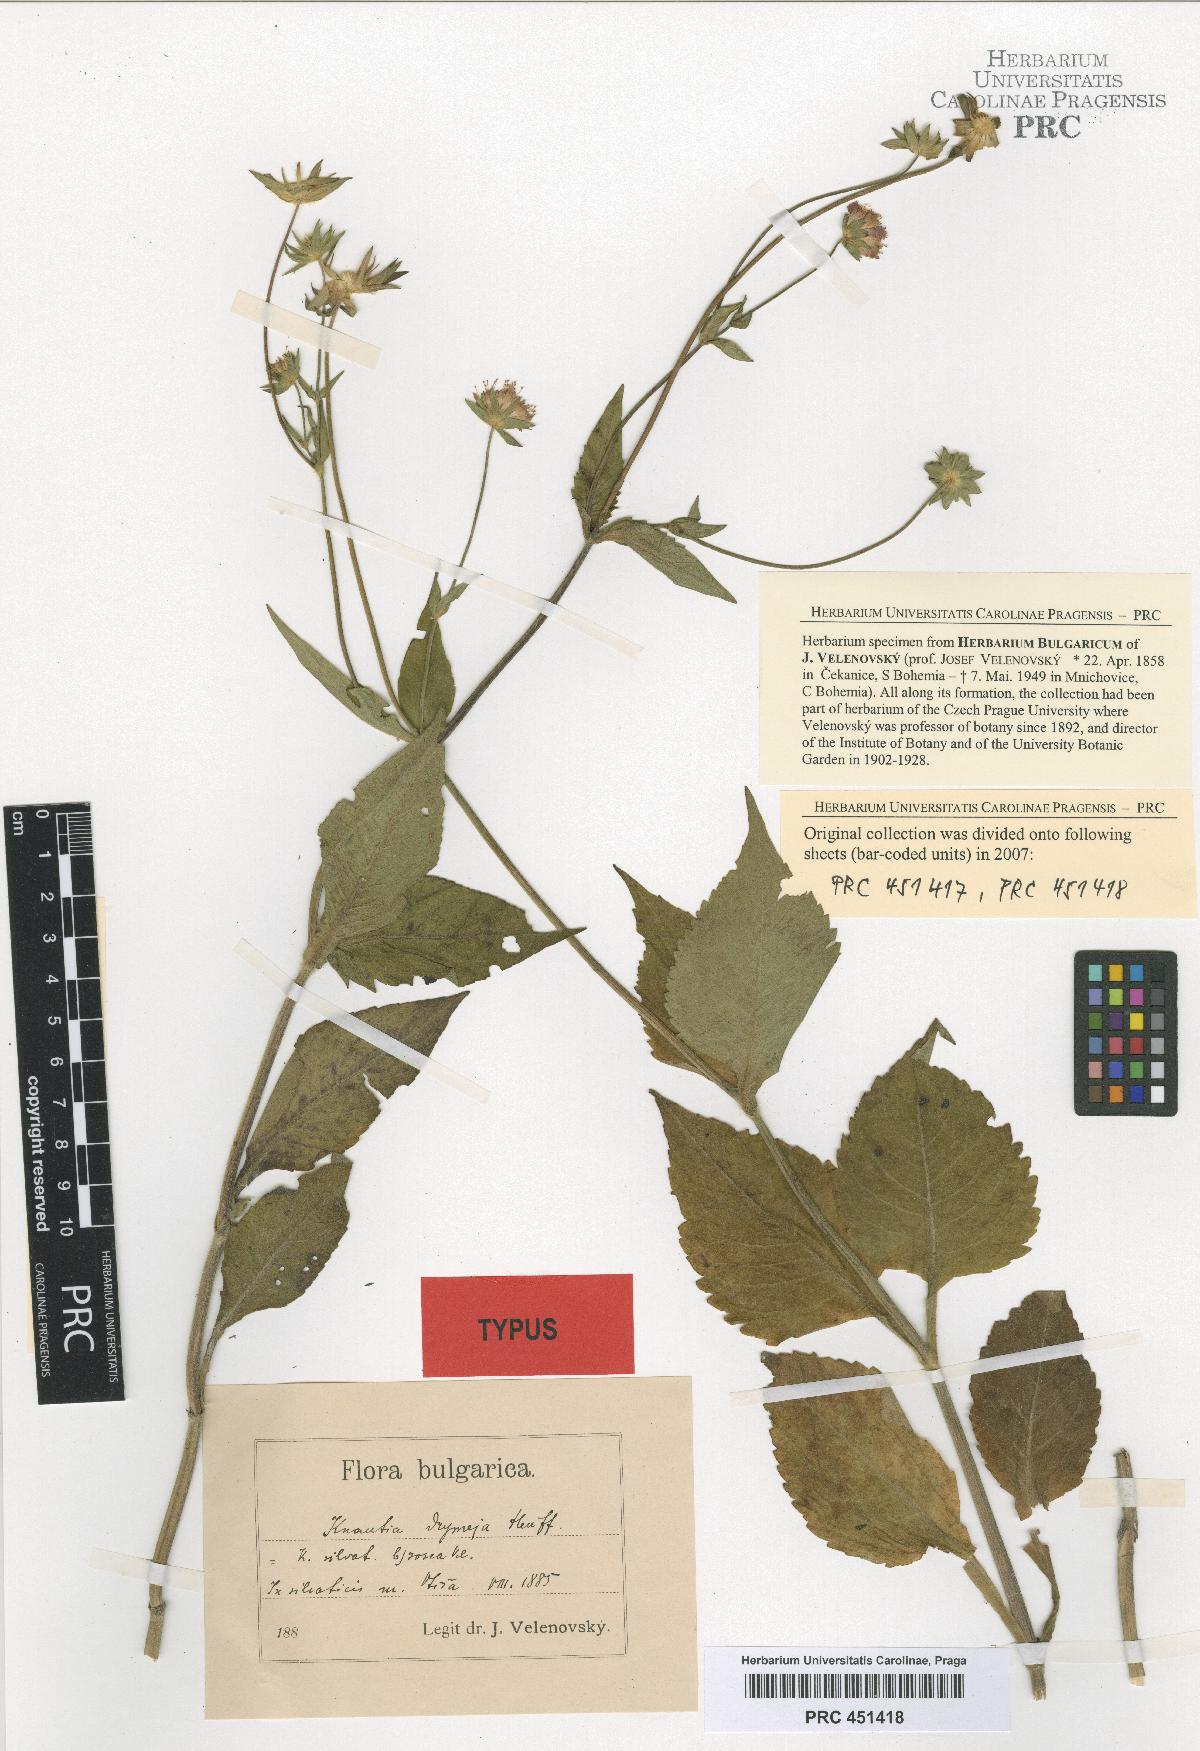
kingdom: Plantae
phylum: Tracheophyta
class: Magnoliopsida
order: Dipsacales
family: Caprifoliaceae
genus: Knautia
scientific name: Knautia drymeia
